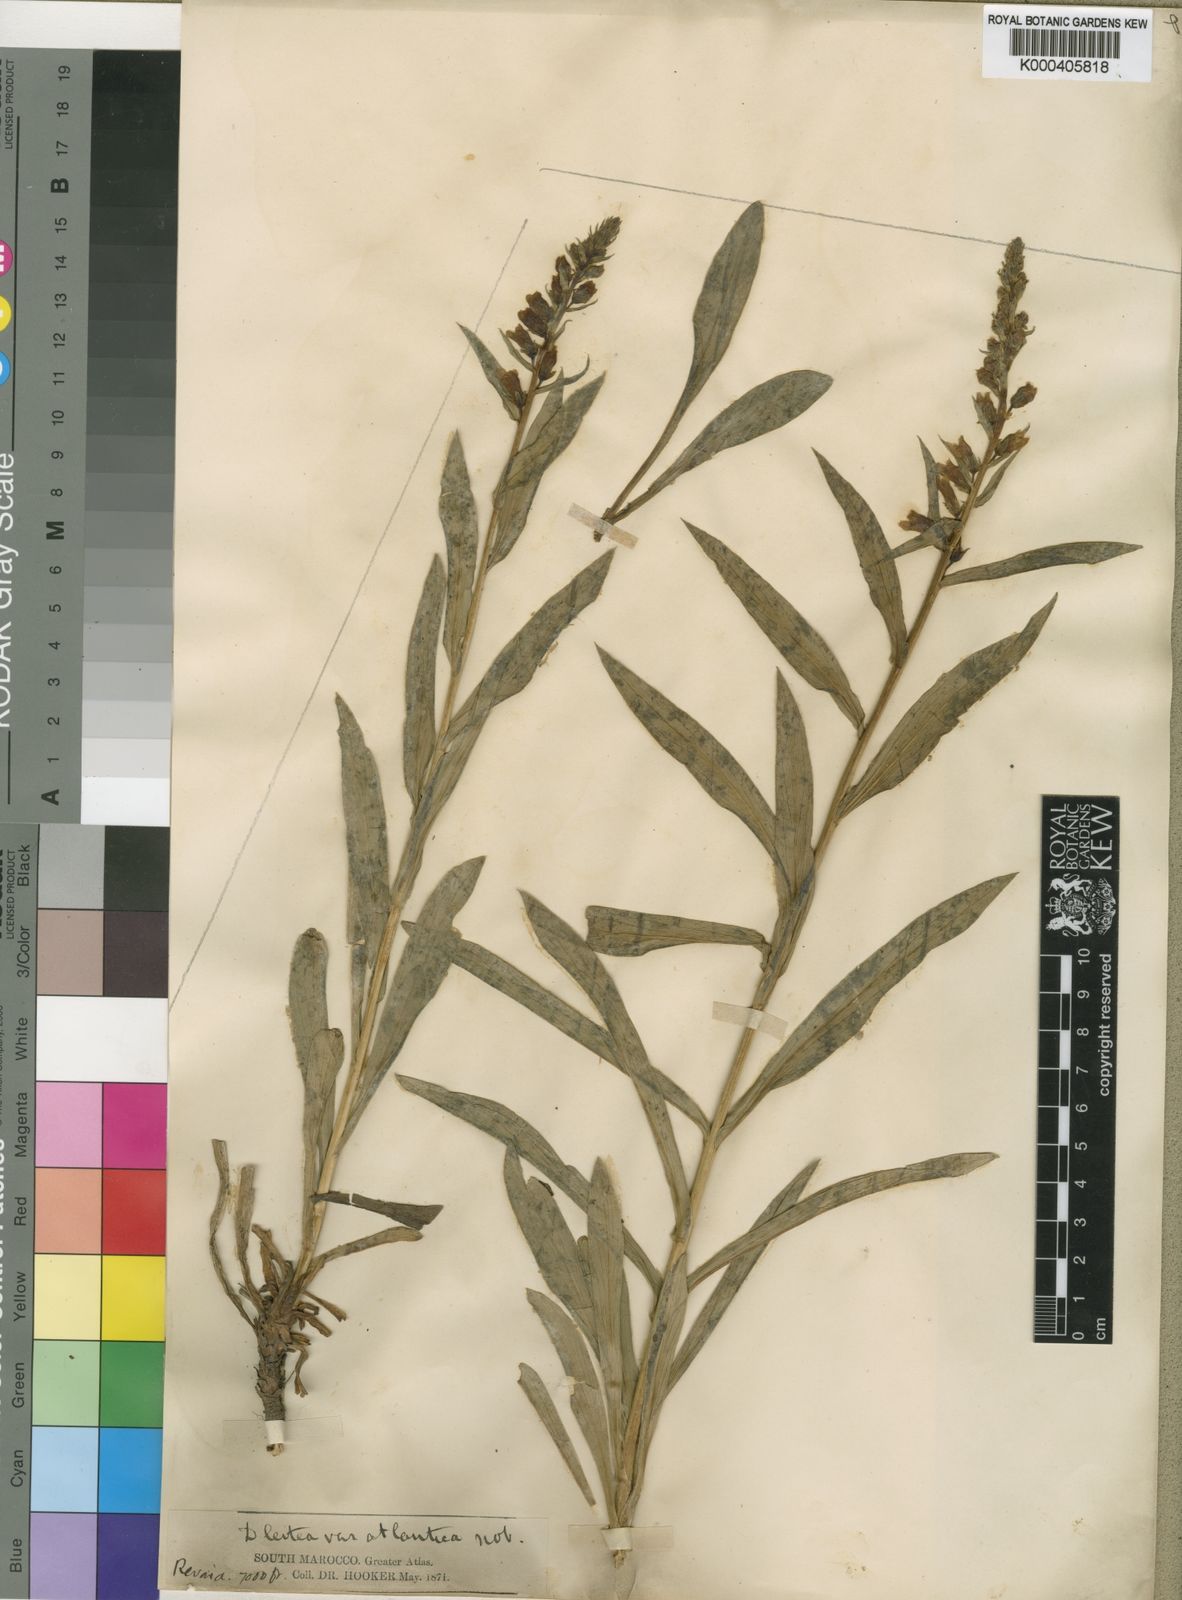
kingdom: Plantae
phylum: Tracheophyta
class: Magnoliopsida
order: Lamiales
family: Plantaginaceae
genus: Digitalis
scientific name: Digitalis subalpina
